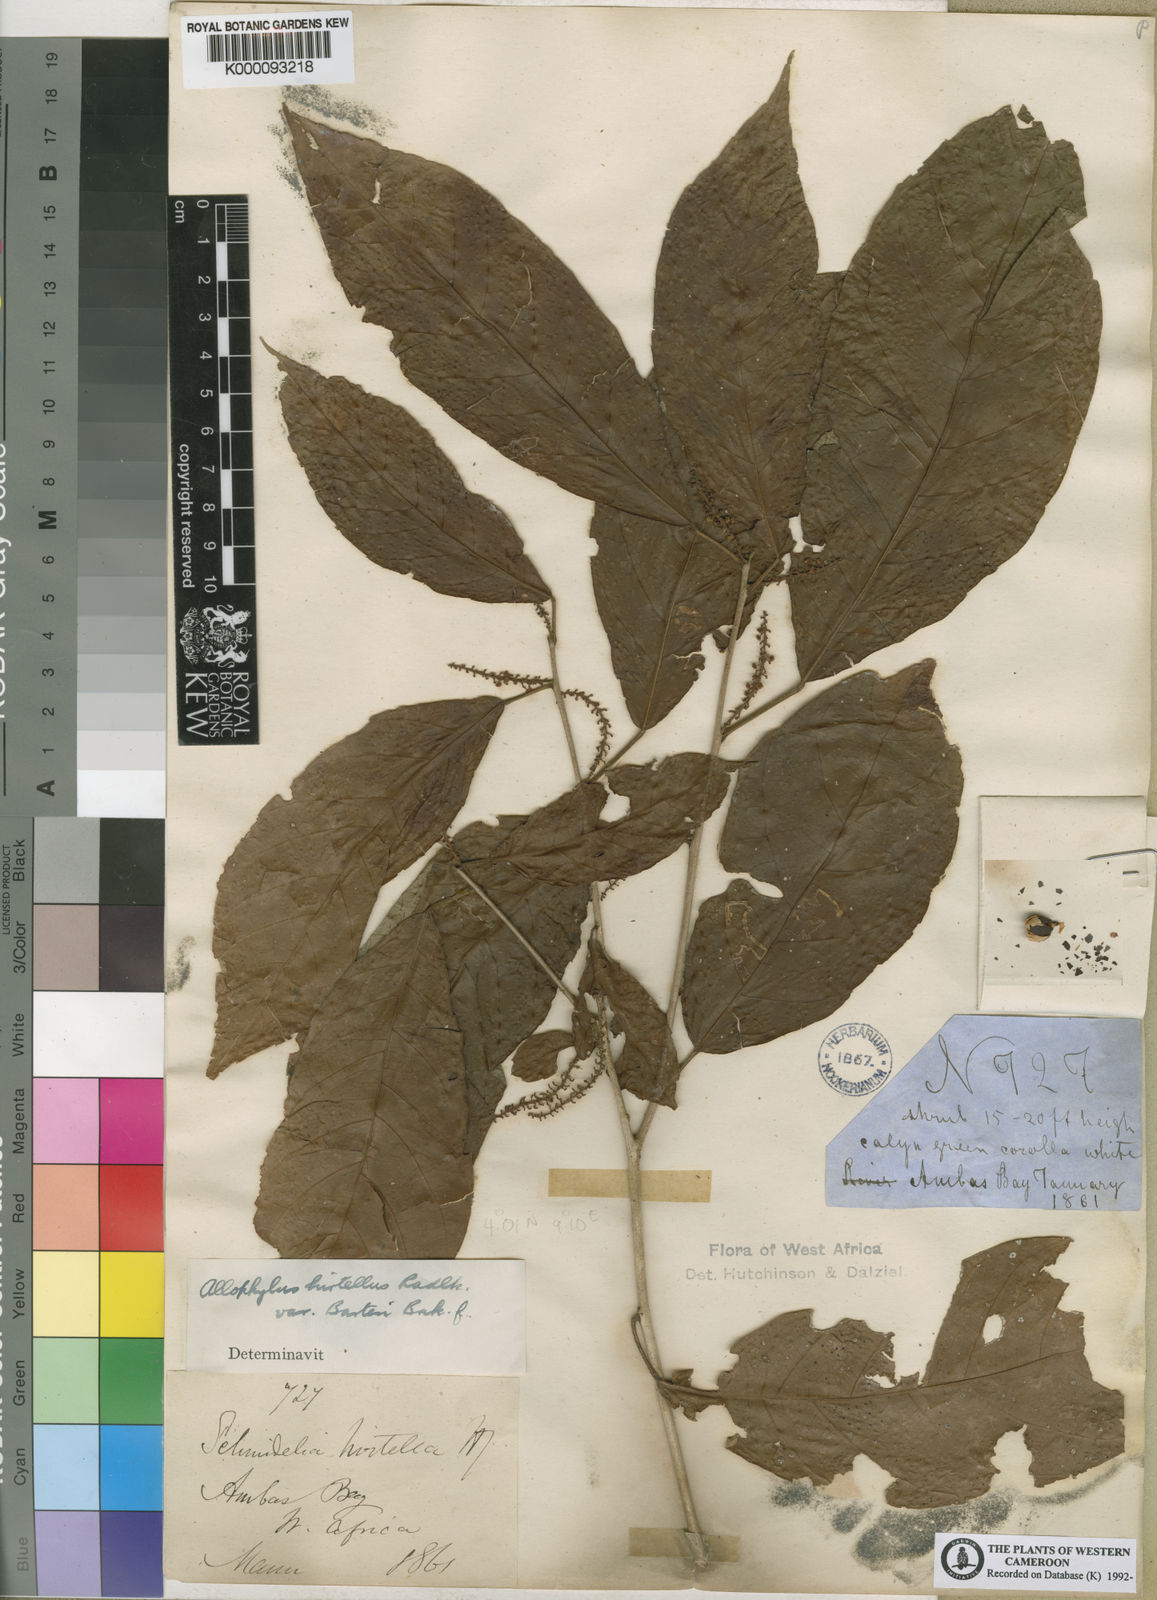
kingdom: Plantae
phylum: Tracheophyta
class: Magnoliopsida
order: Sapindales
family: Sapindaceae
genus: Allophylus
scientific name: Allophylus hirtellus
